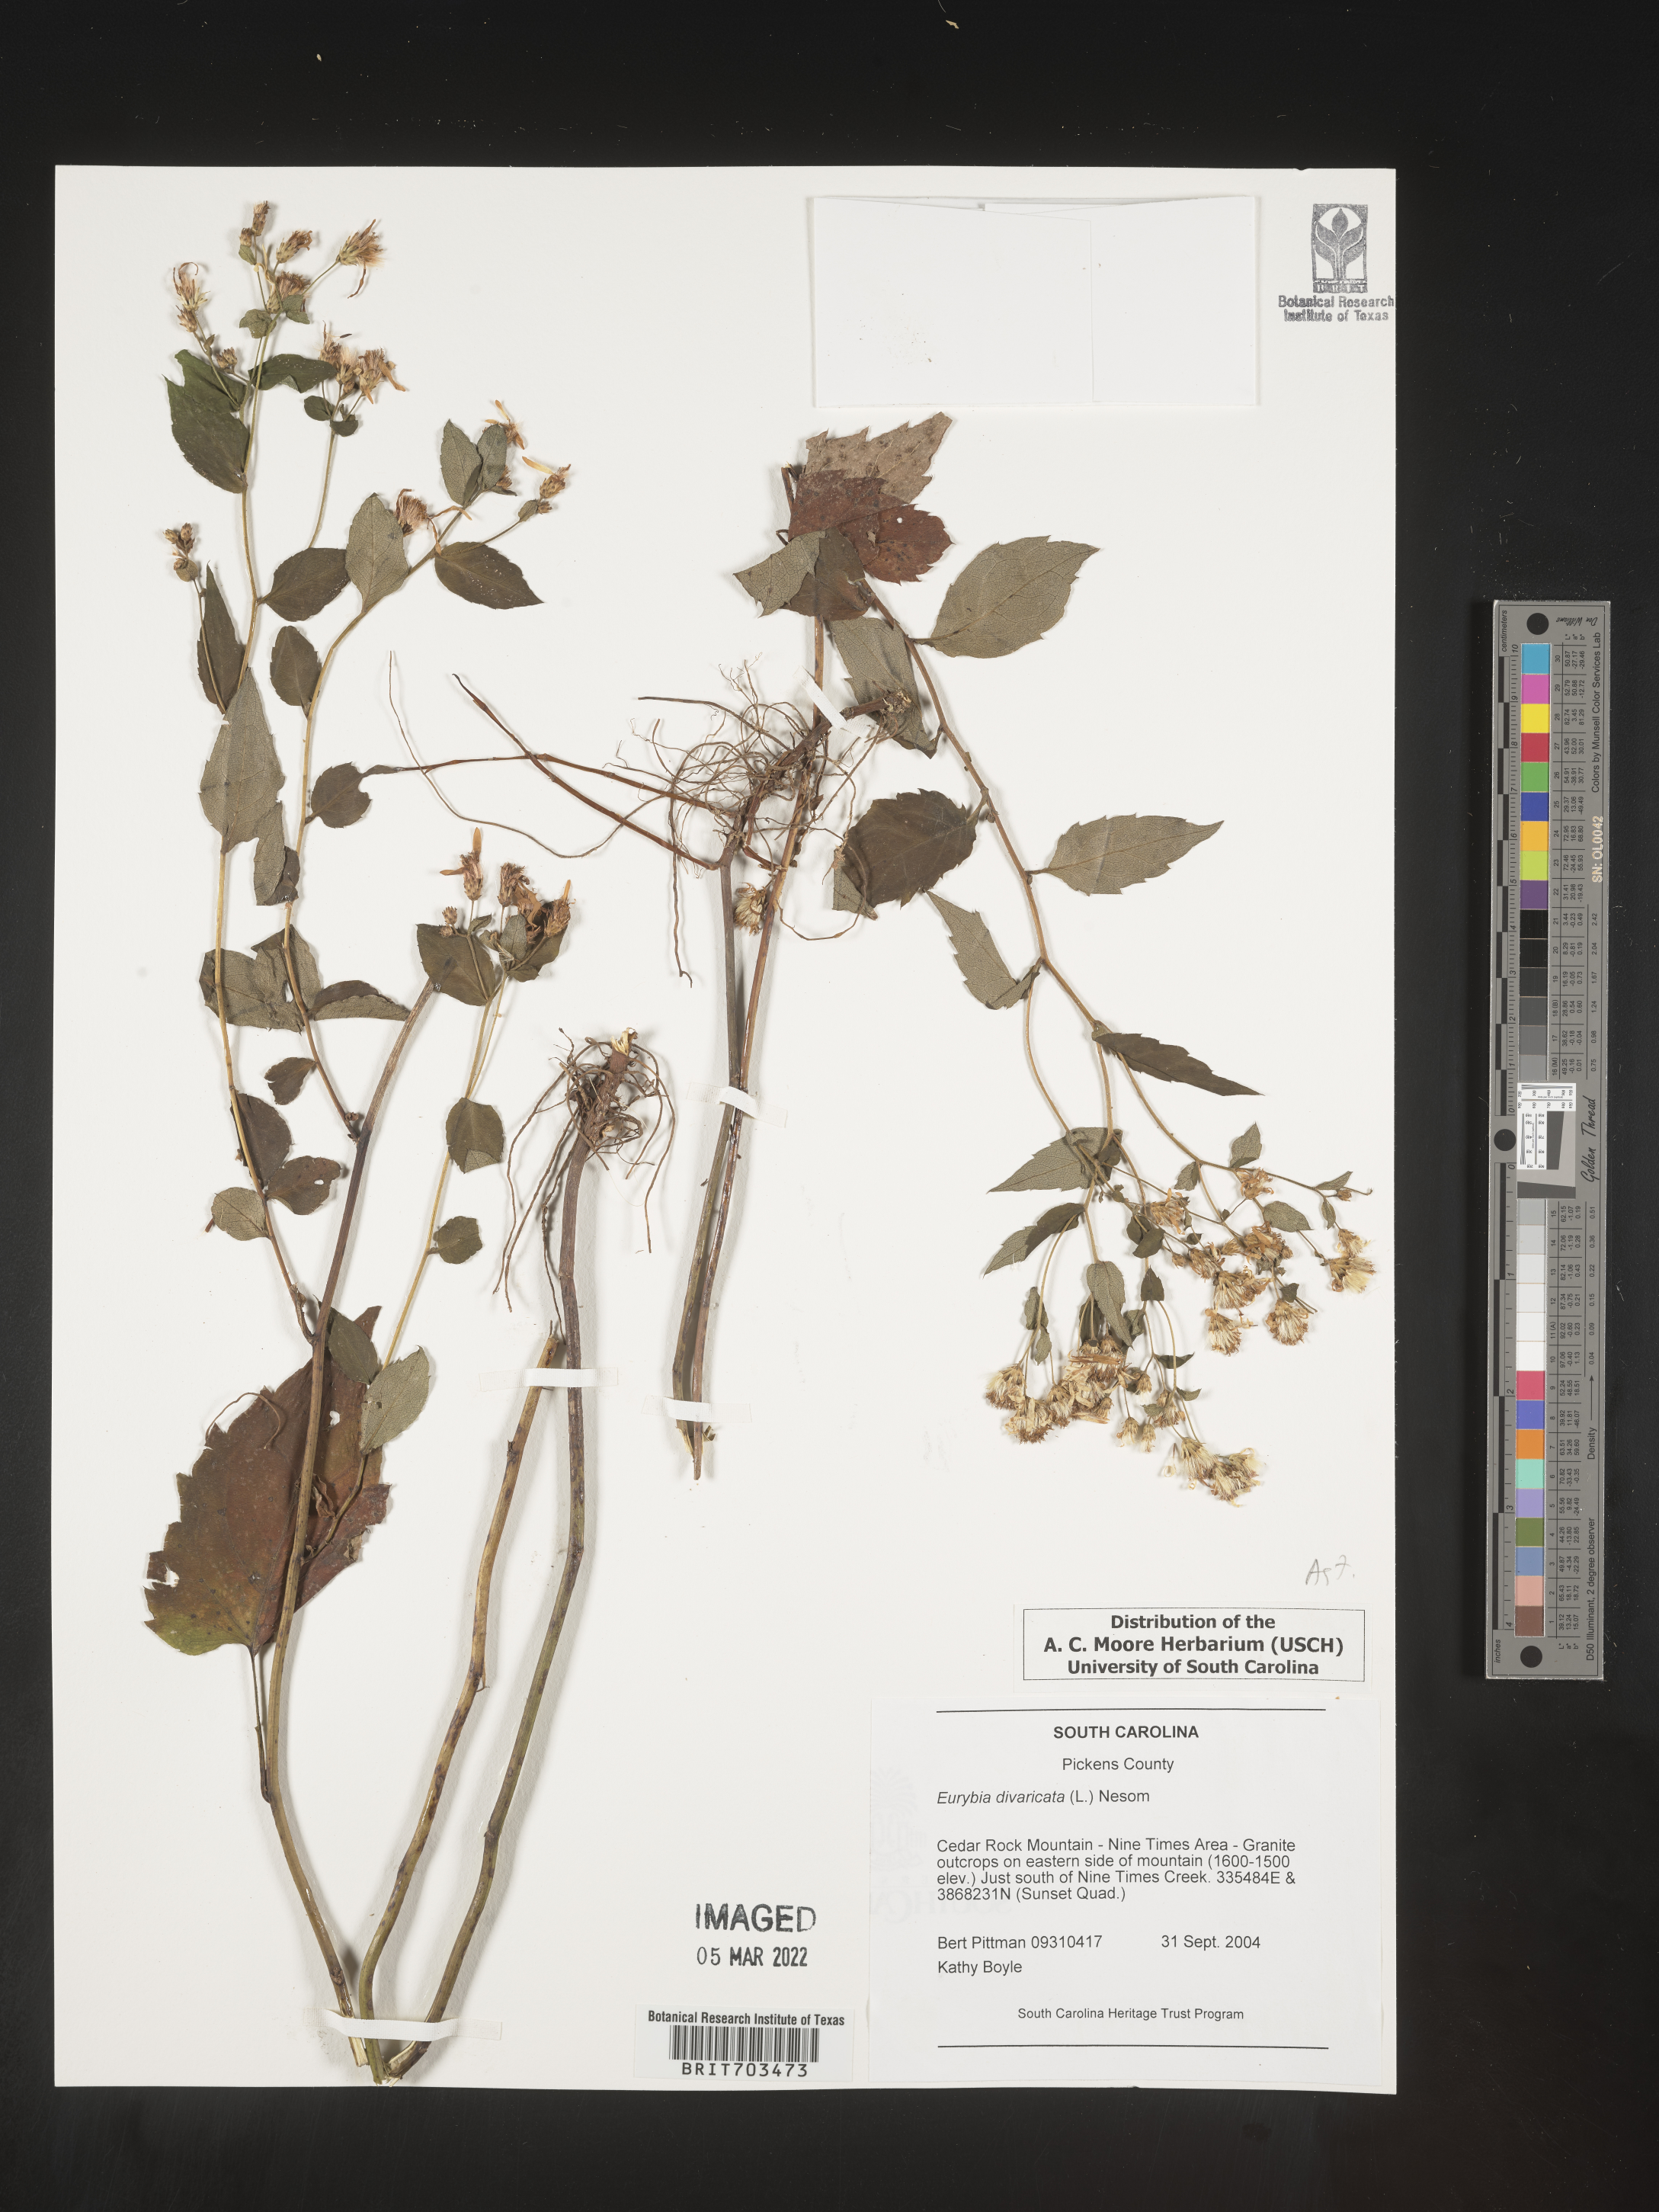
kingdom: Plantae
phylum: Tracheophyta
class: Magnoliopsida
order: Asterales
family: Asteraceae
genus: Eurybia
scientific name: Eurybia divaricata
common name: White wood aster
